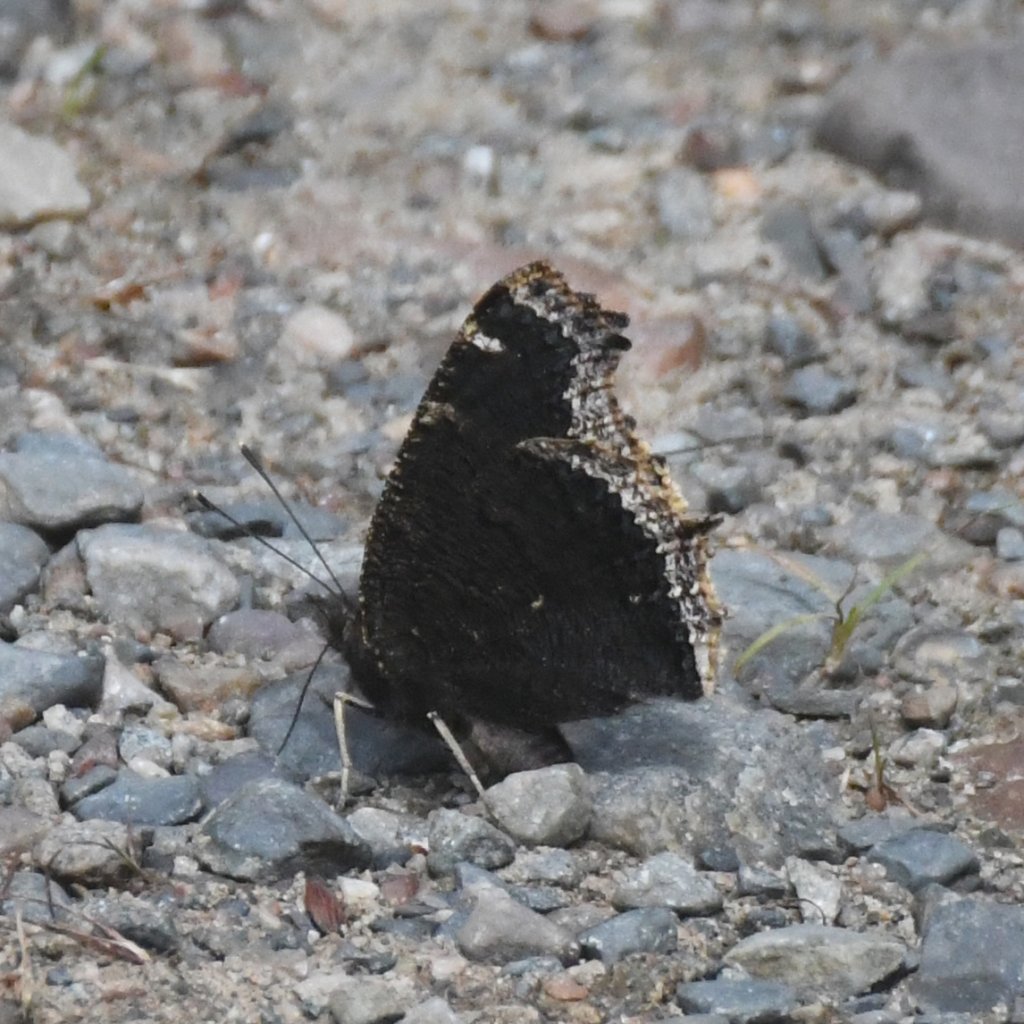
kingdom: Animalia
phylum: Arthropoda
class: Insecta
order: Lepidoptera
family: Nymphalidae
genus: Nymphalis
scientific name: Nymphalis antiopa
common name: Mourning Cloak
